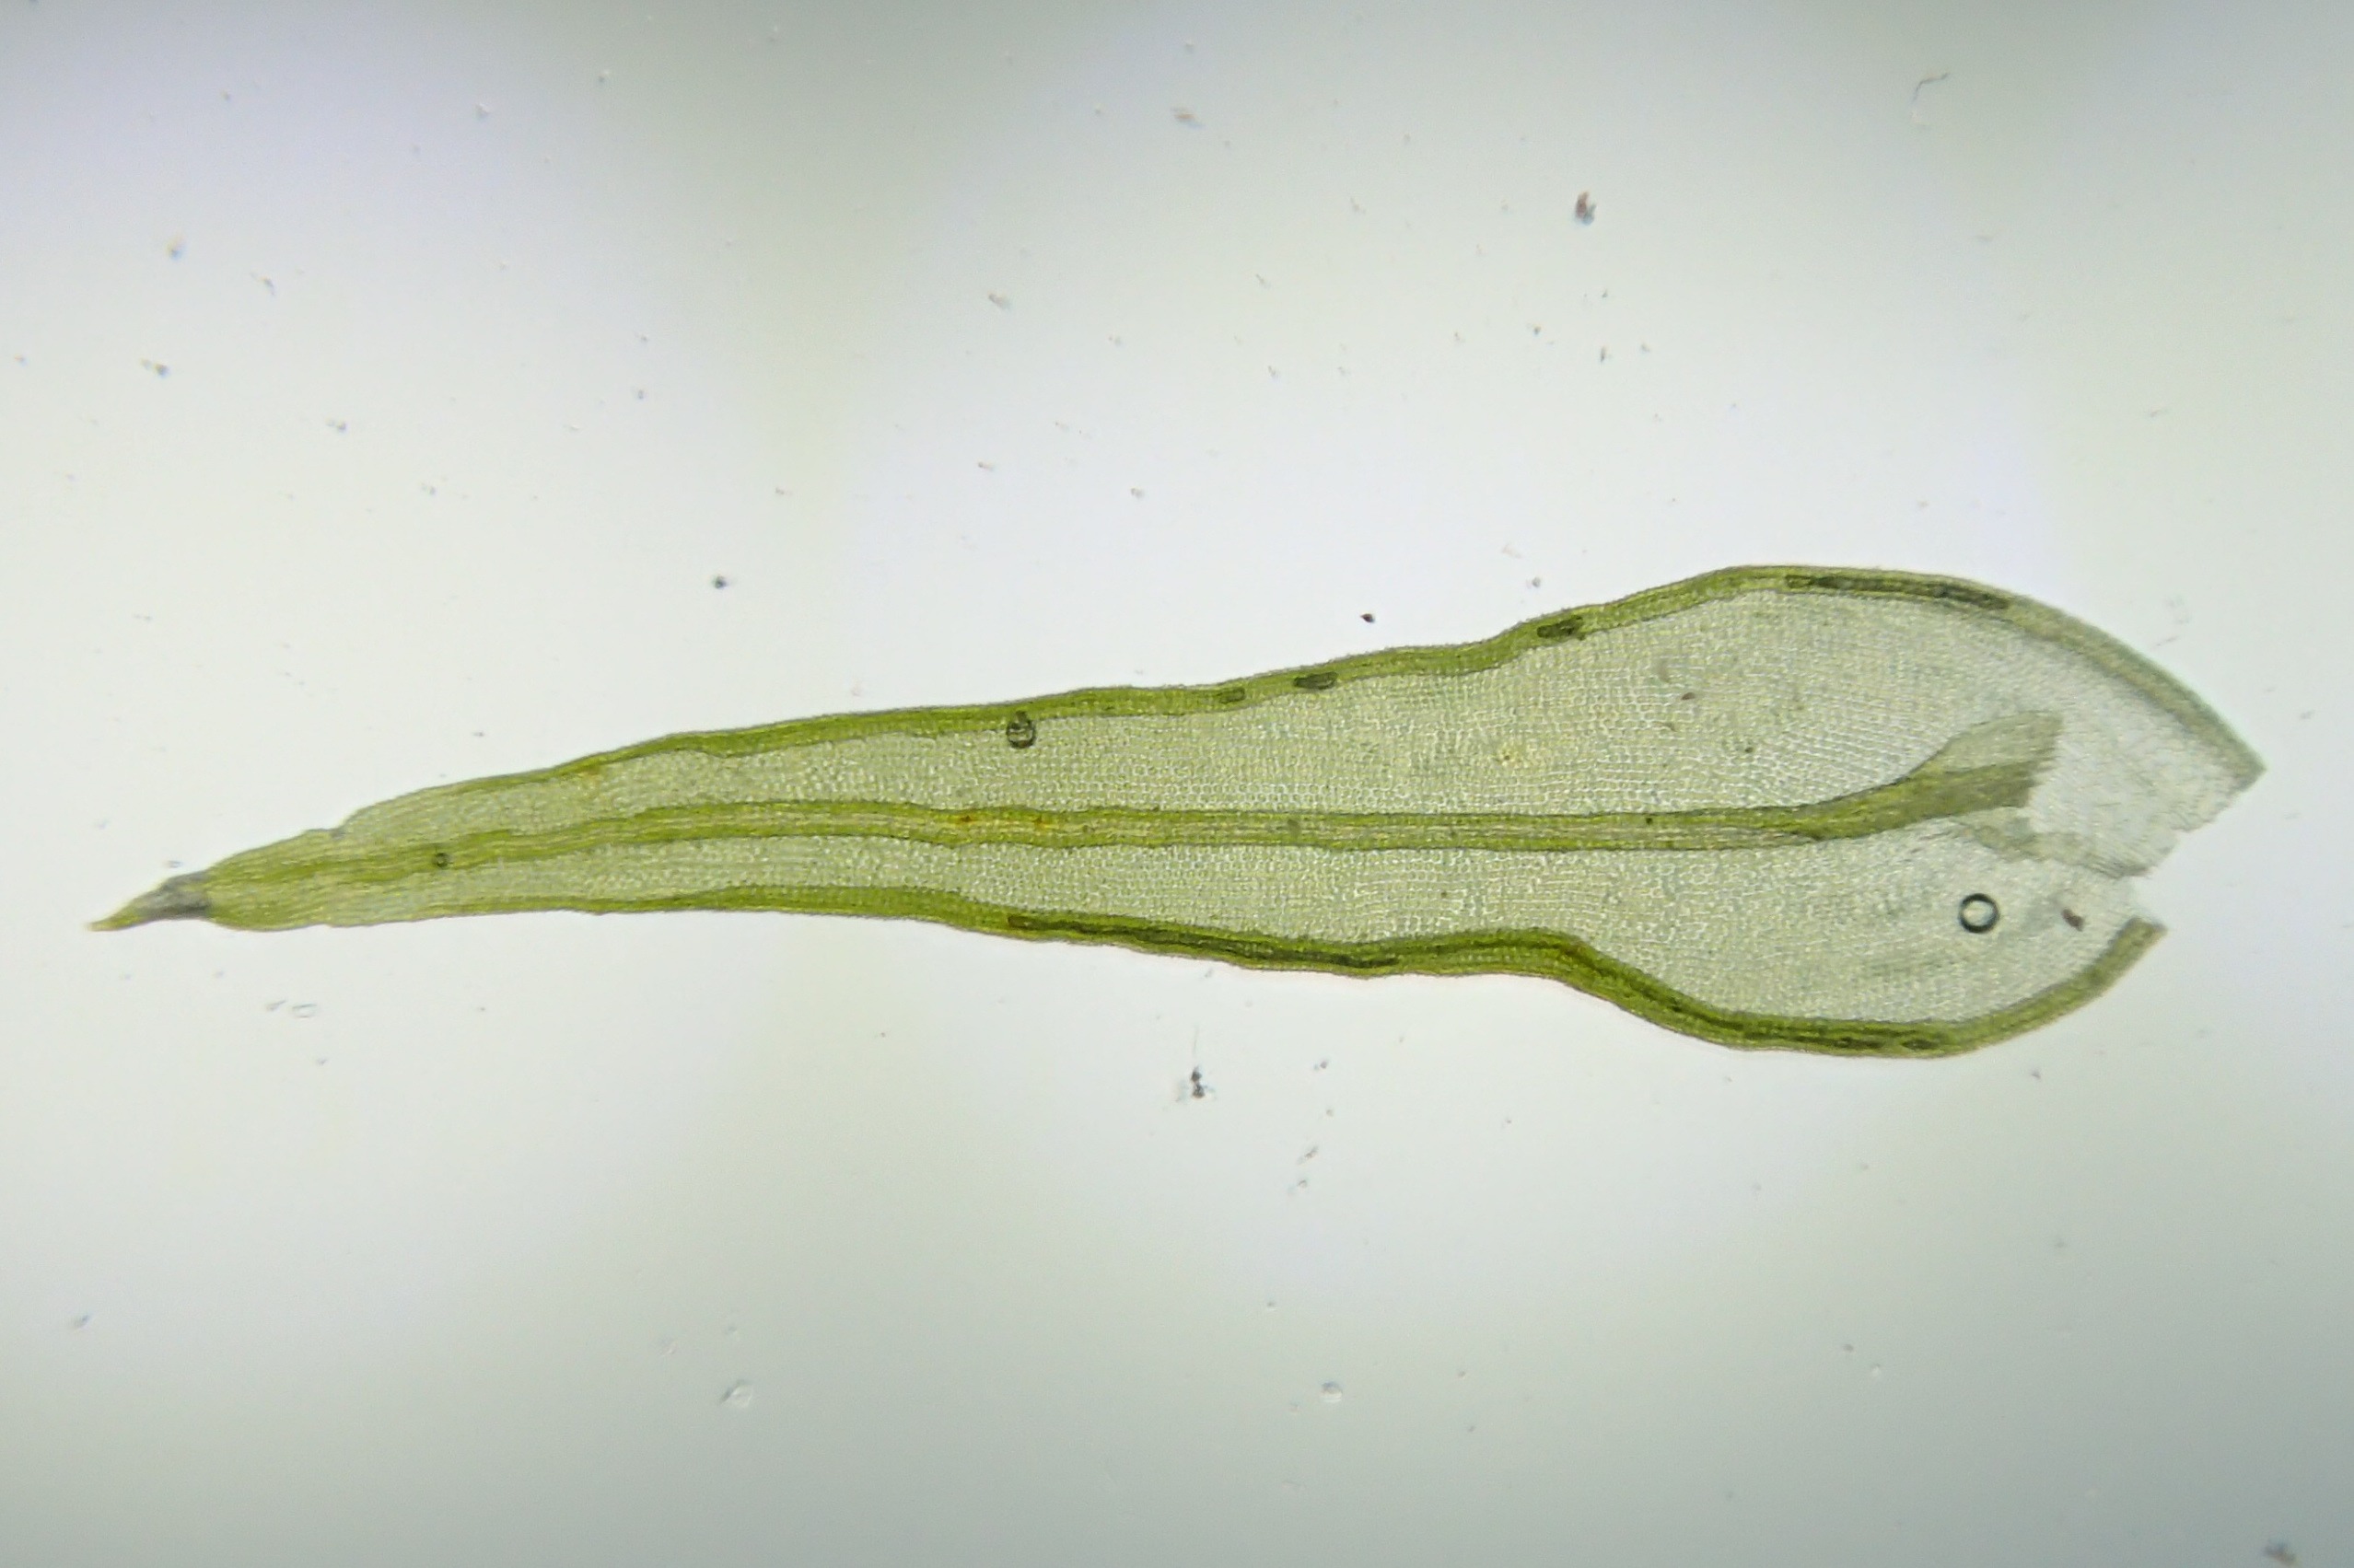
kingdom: Plantae
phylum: Bryophyta
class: Bryopsida
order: Orthotrichales
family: Orthotrichaceae
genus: Lewinskya
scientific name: Lewinskya speciosa
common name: Kortstribet furehætte
